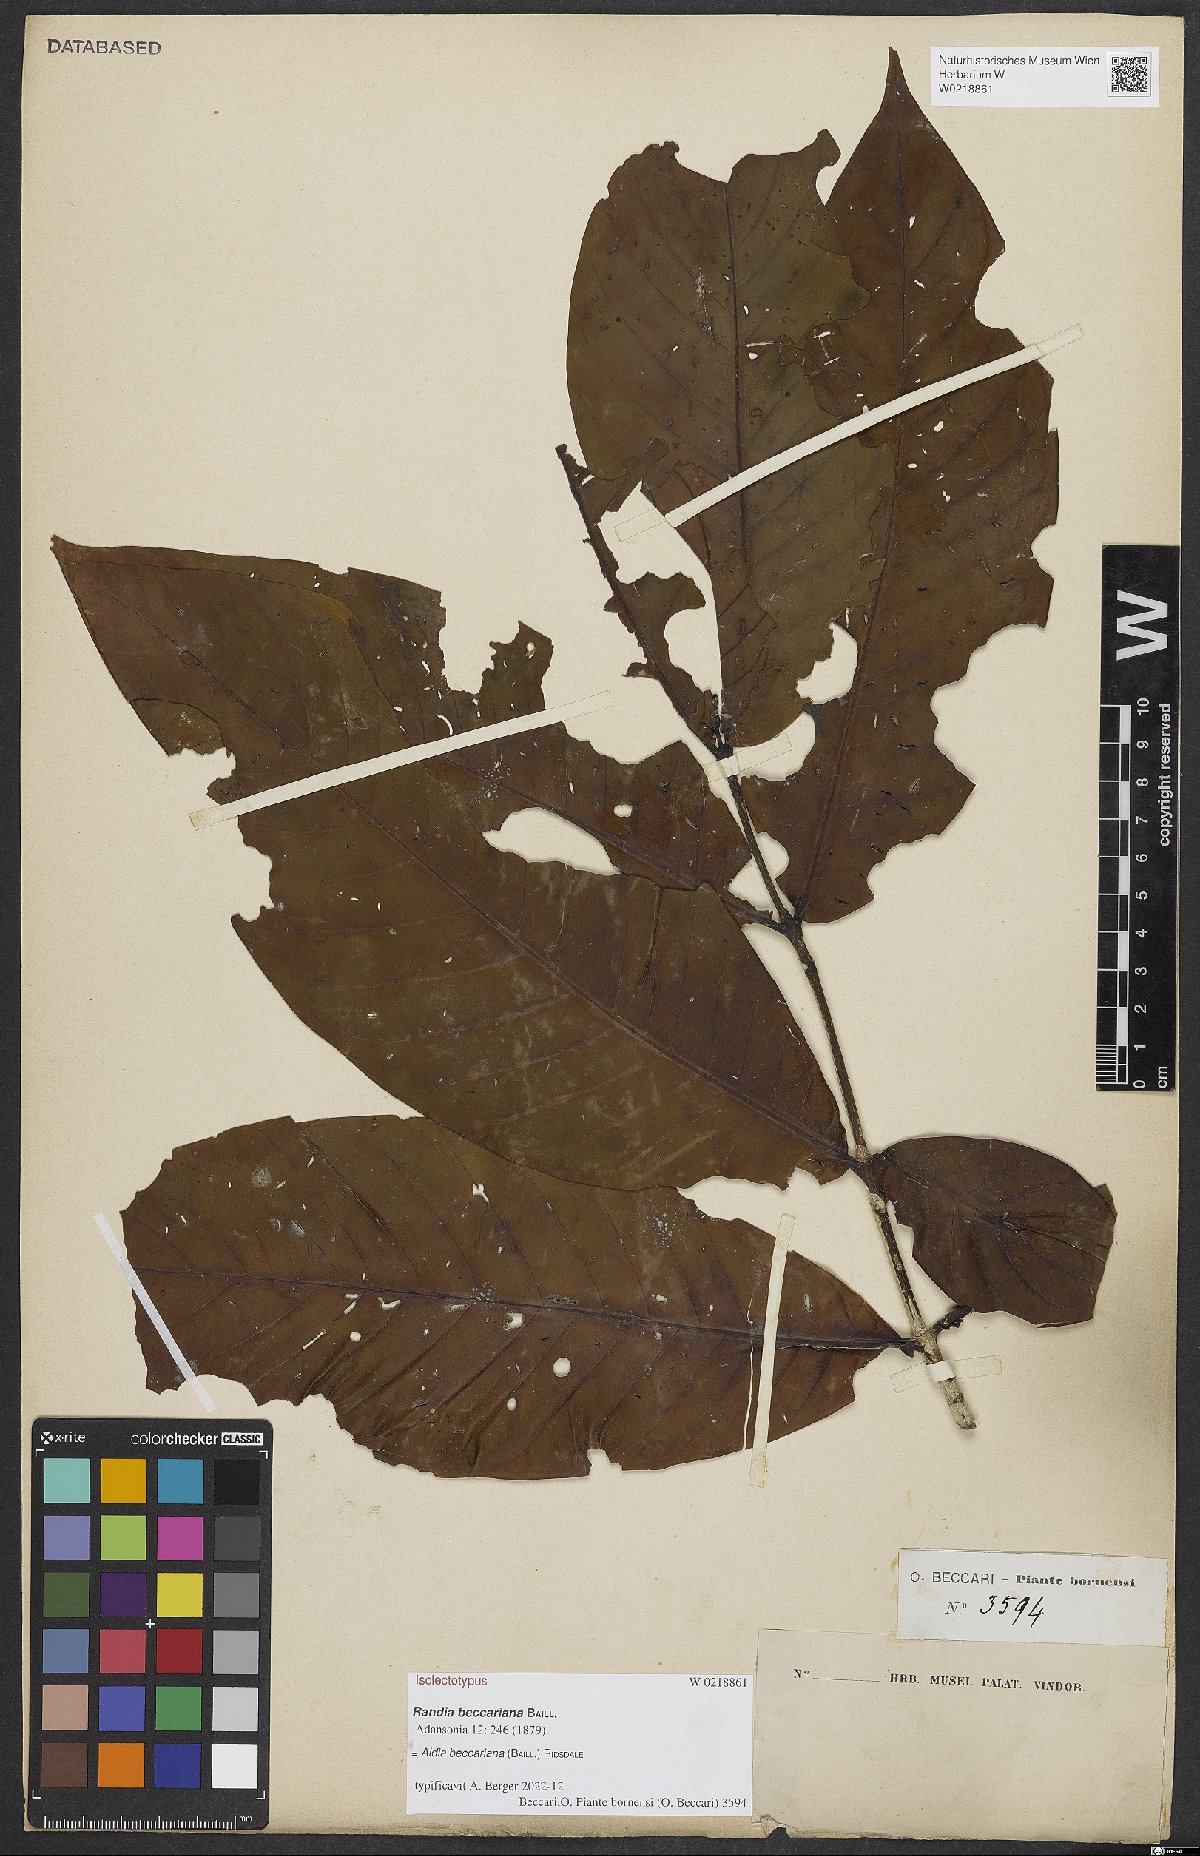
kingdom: Plantae
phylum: Tracheophyta
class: Magnoliopsida
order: Gentianales
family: Rubiaceae
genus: Aidia
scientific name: Aidia beccariana
